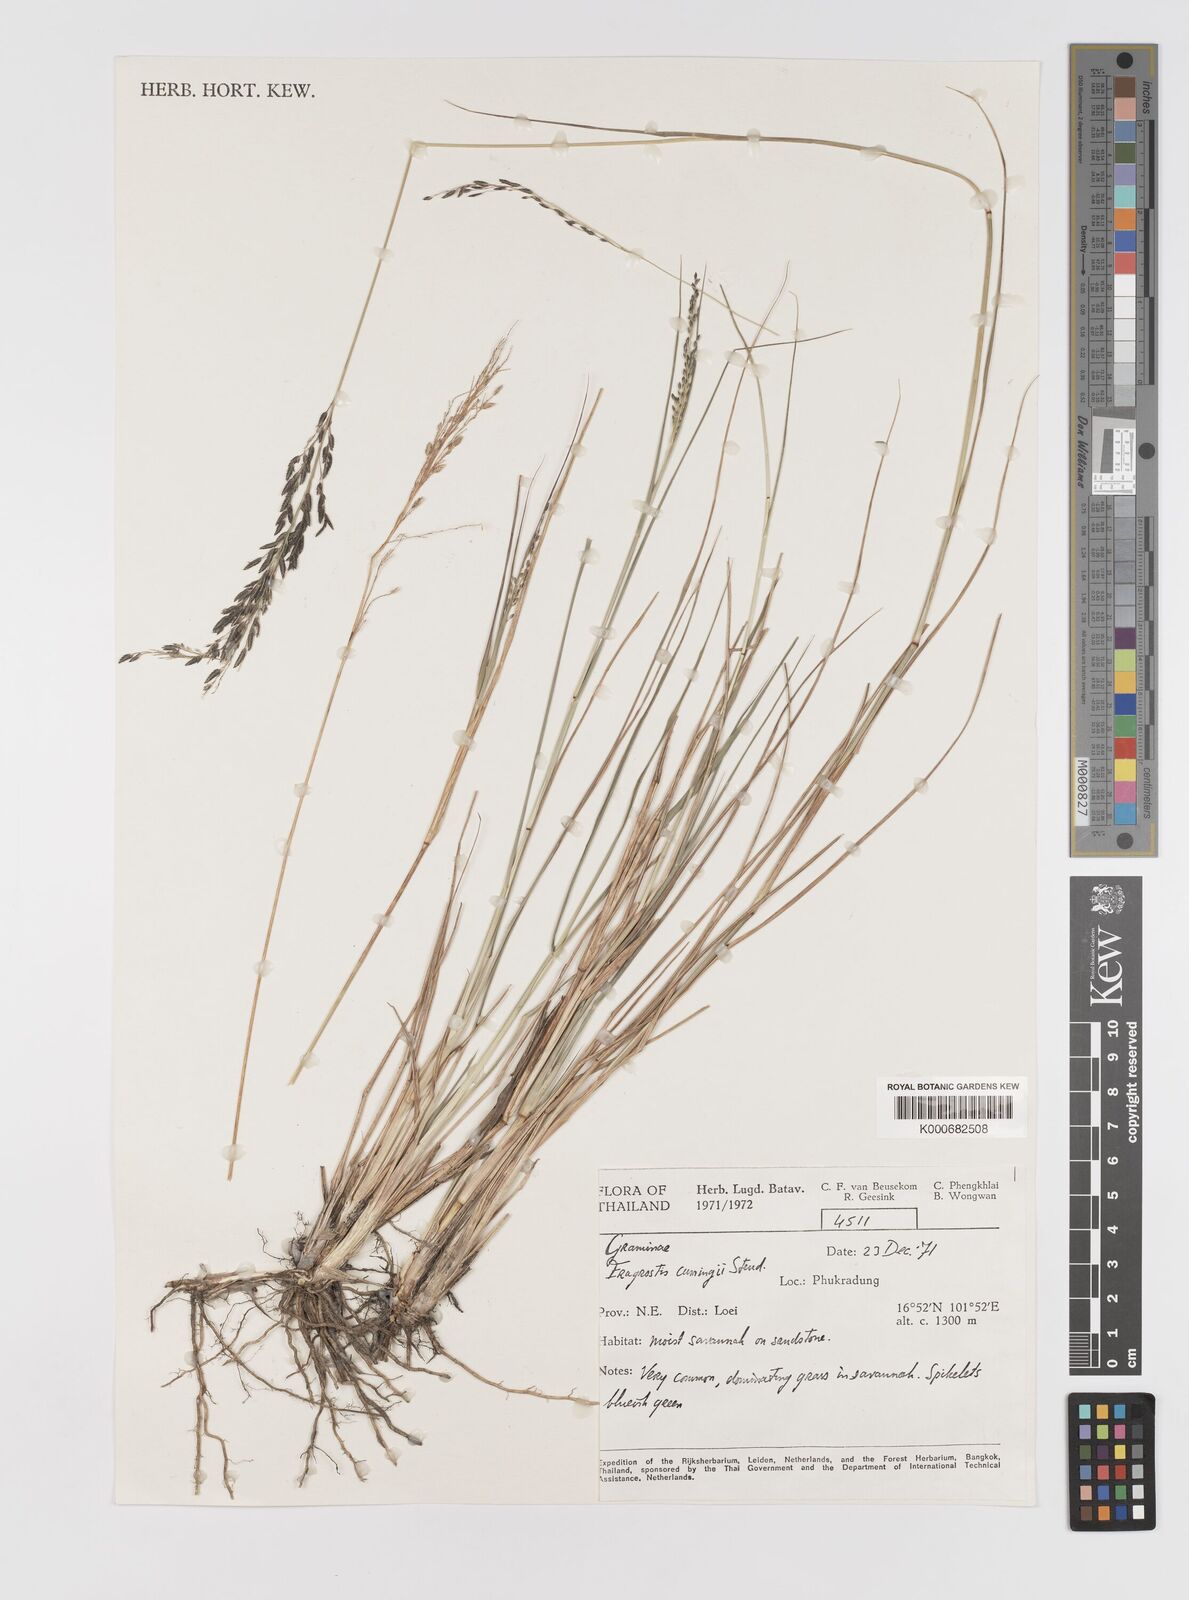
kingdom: Plantae
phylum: Tracheophyta
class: Liliopsida
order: Poales
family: Poaceae
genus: Eragrostis
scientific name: Eragrostis brownii
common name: Lovegrass
